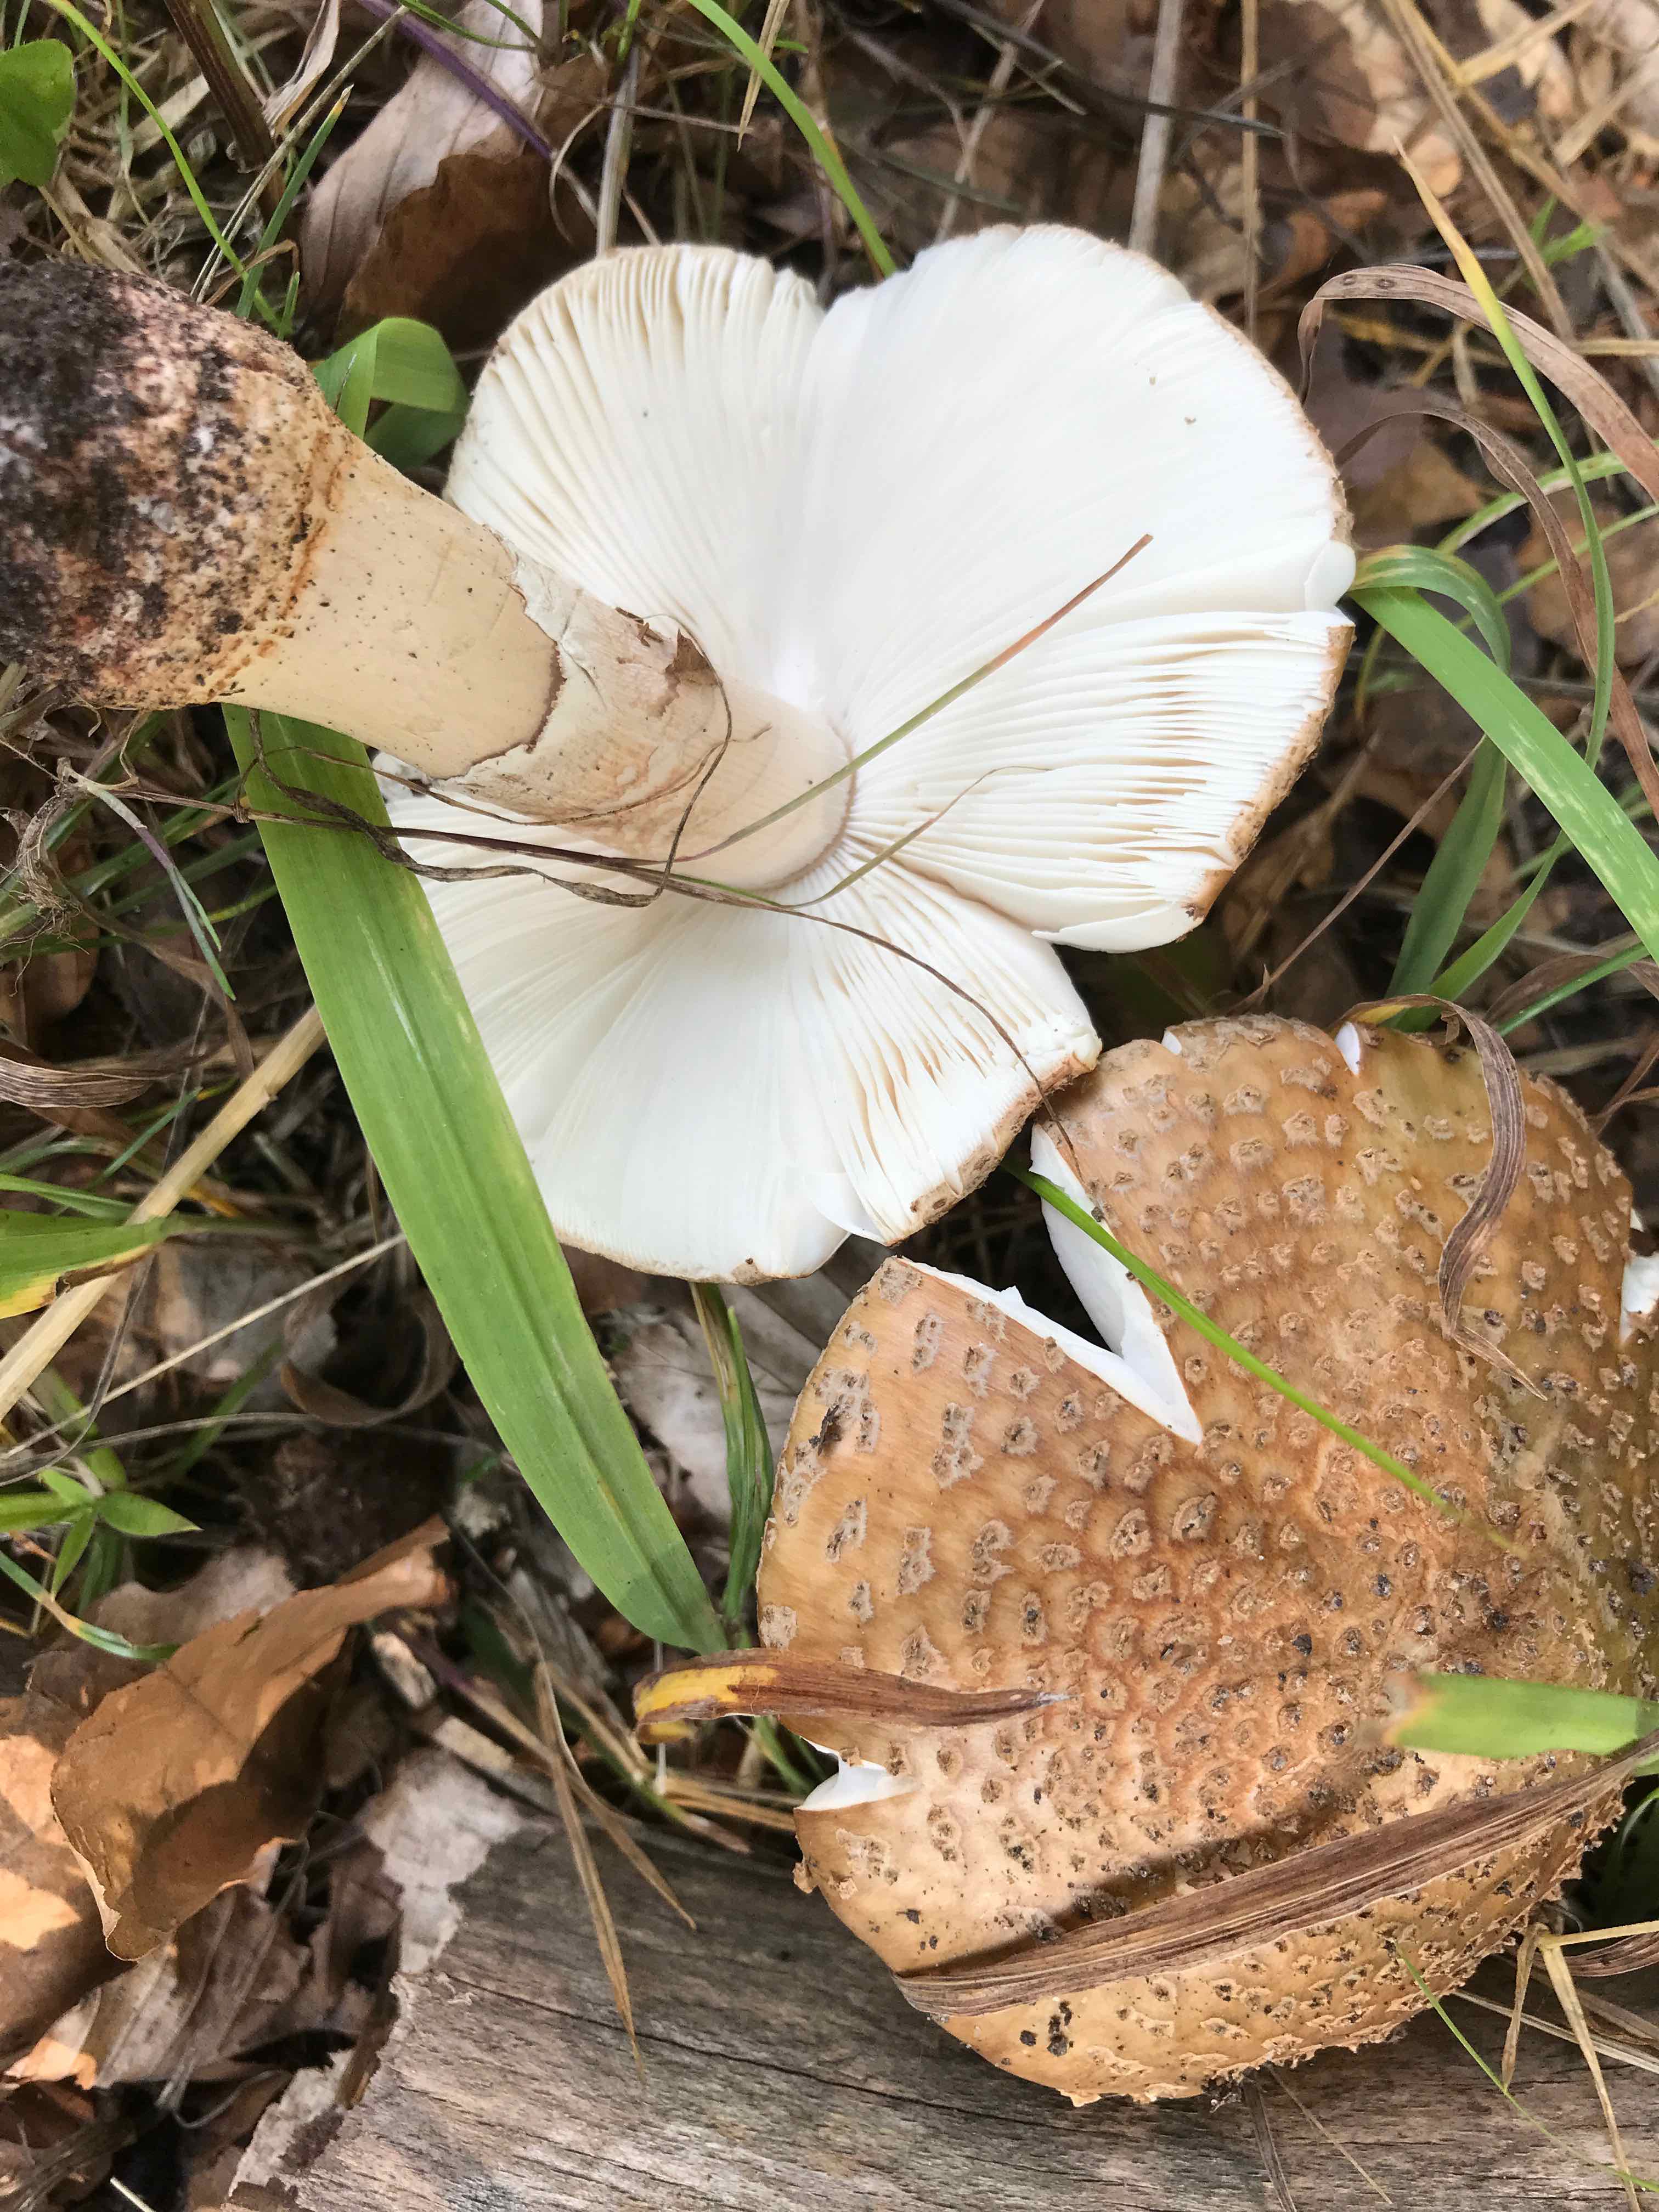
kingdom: Fungi
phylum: Basidiomycota
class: Agaricomycetes
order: Agaricales
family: Amanitaceae
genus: Amanita
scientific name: Amanita rubescens
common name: rødmende fluesvamp
